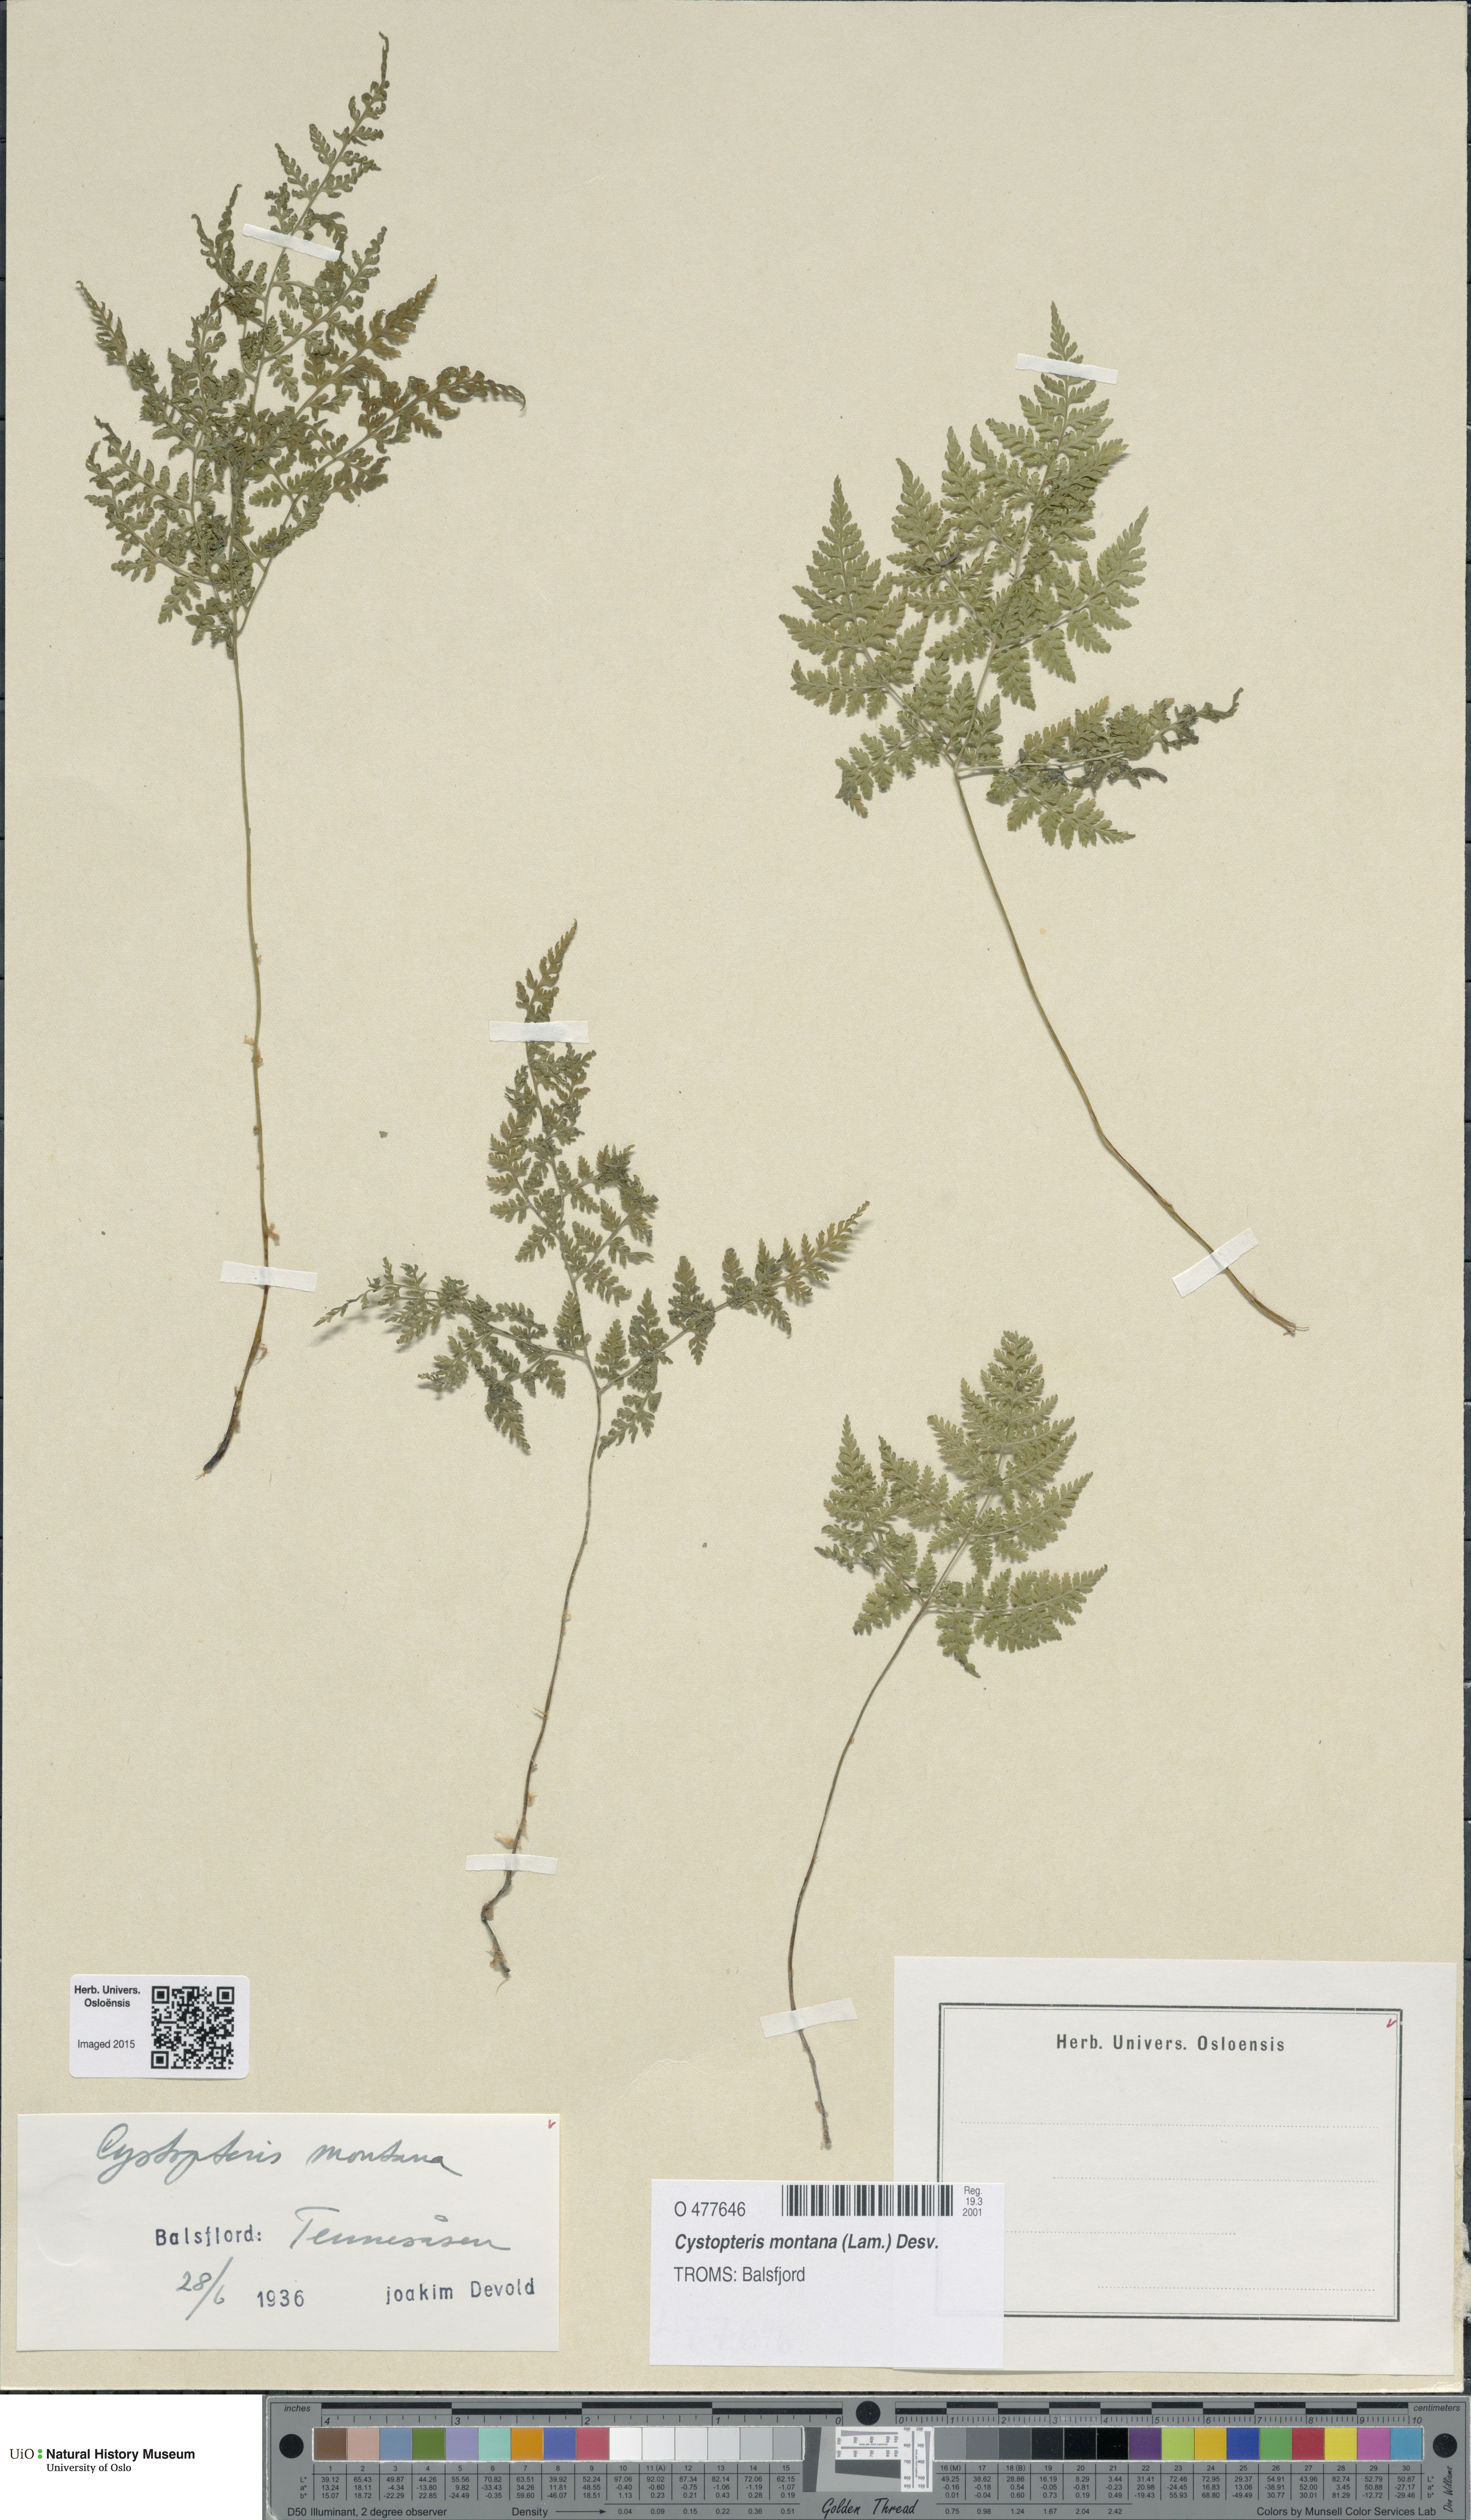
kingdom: Plantae
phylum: Tracheophyta
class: Polypodiopsida
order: Polypodiales
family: Cystopteridaceae
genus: Cystopteris
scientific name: Cystopteris montana
